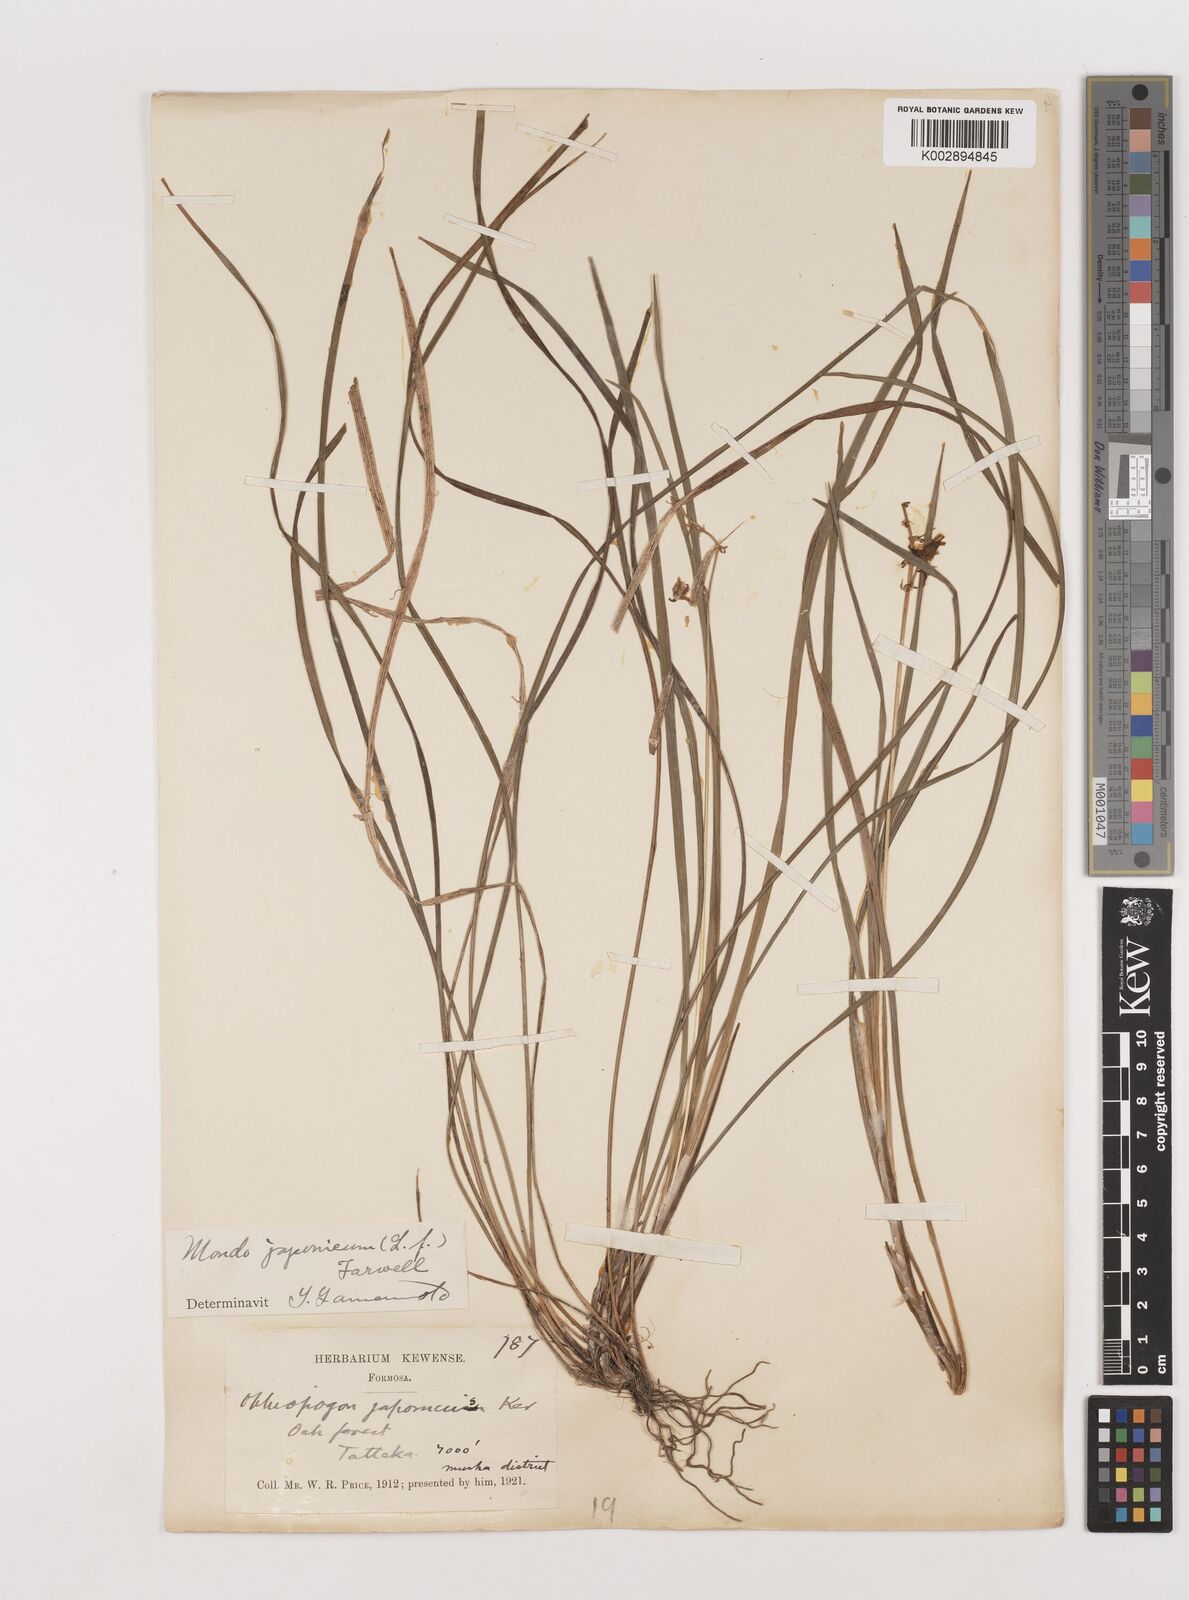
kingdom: Plantae
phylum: Tracheophyta
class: Liliopsida
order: Asparagales
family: Asparagaceae
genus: Ophiopogon
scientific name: Ophiopogon japonicus
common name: Dwarf lilyturf
